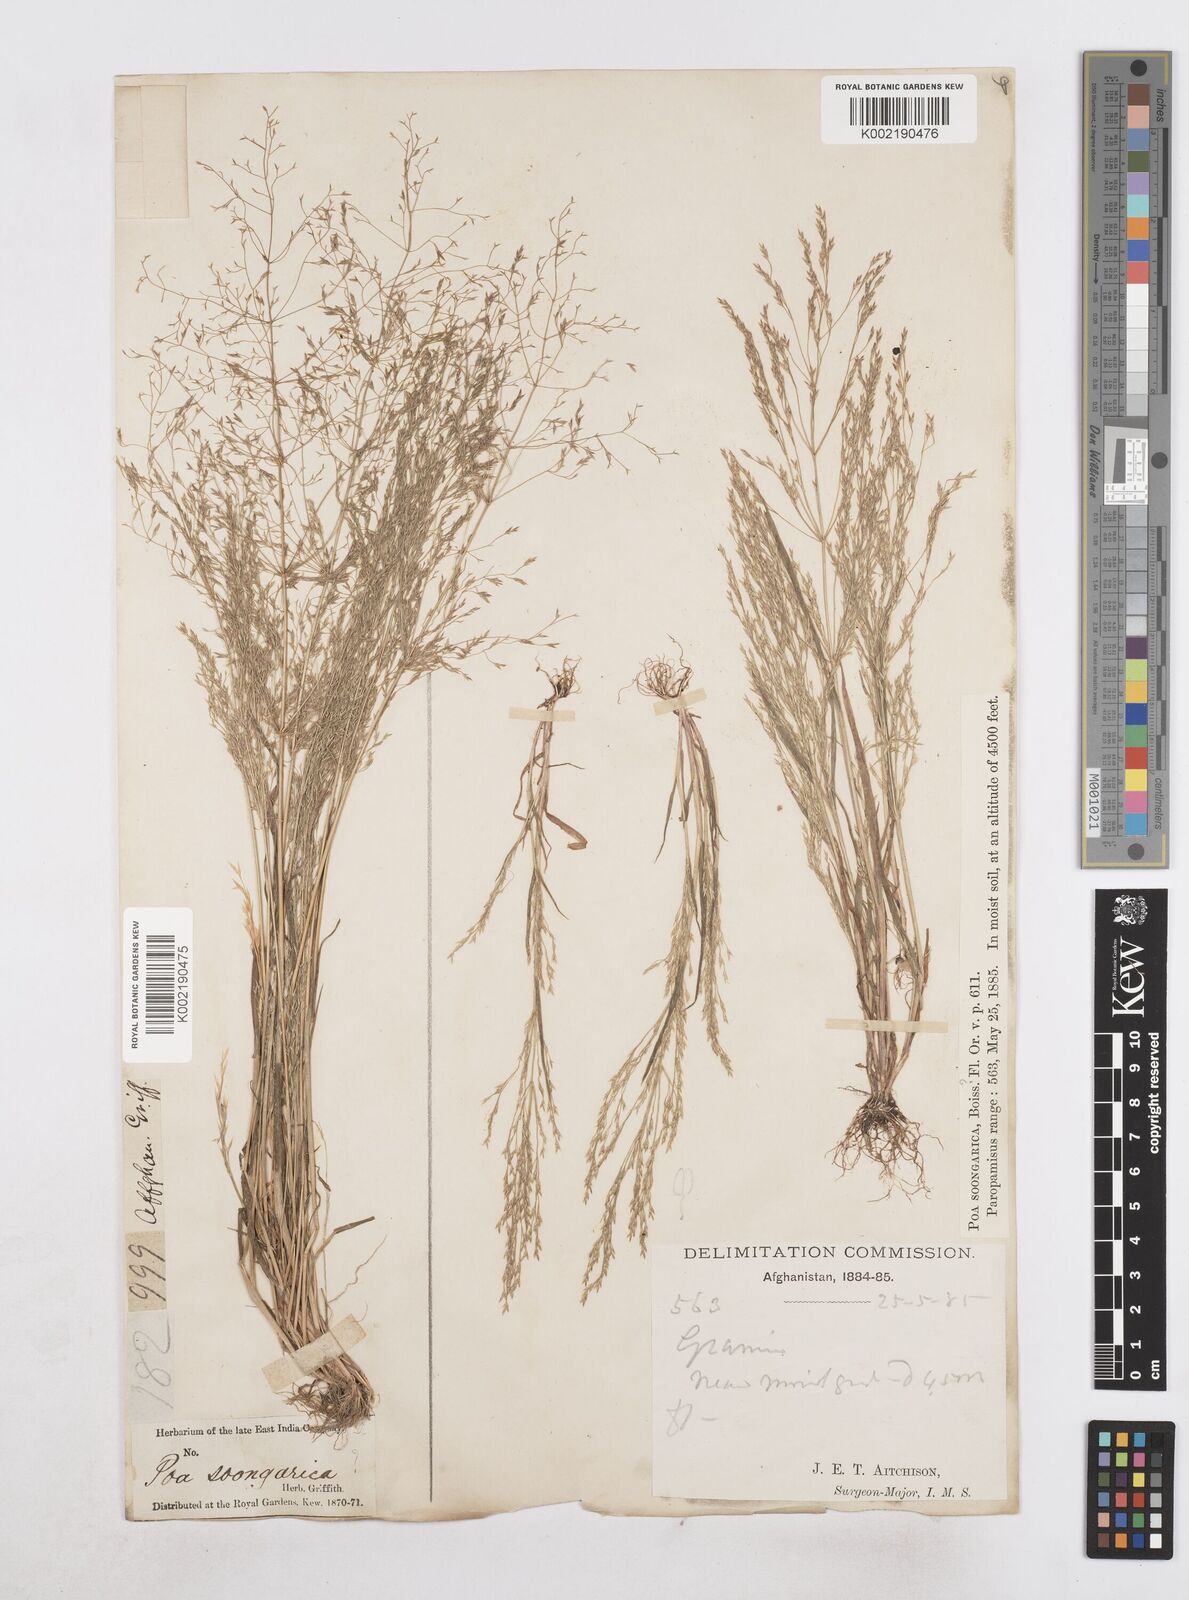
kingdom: Plantae
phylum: Tracheophyta
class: Liliopsida
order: Poales
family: Poaceae
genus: Poa
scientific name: Poa diaphora
